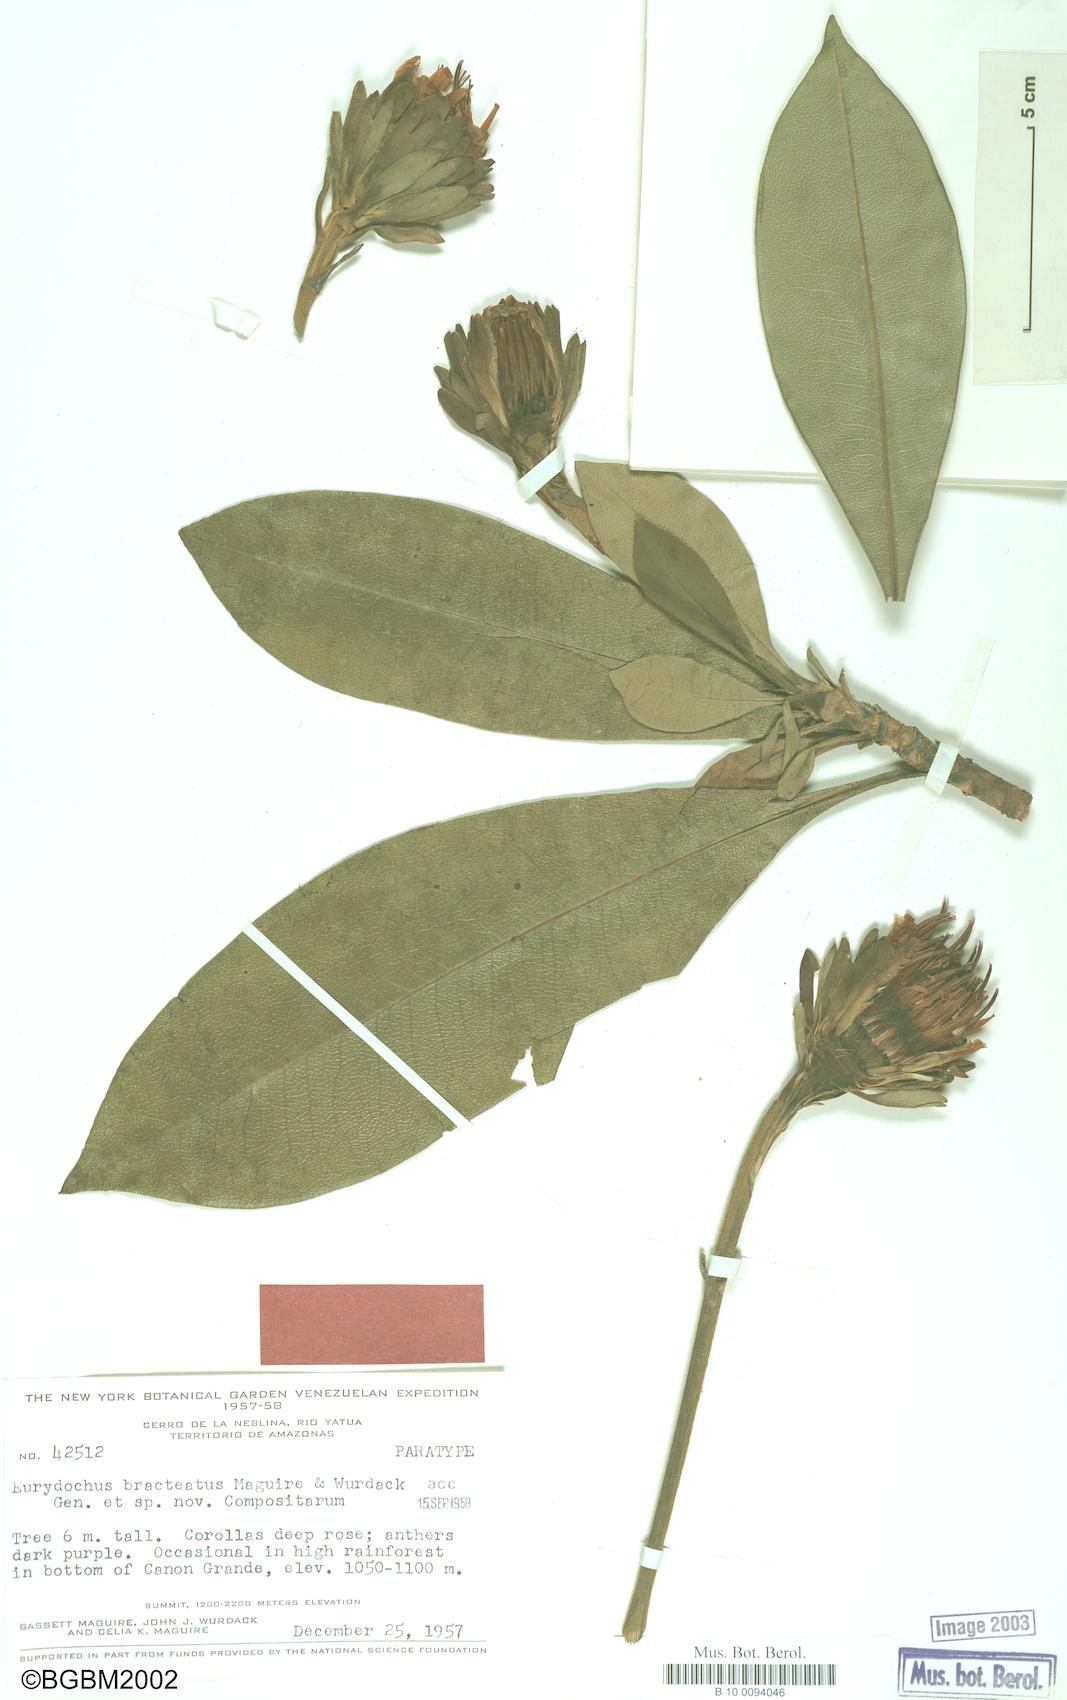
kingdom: Plantae
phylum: Tracheophyta
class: Magnoliopsida
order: Asterales
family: Asteraceae
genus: Eurydochus
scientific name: Eurydochus bracteatus
